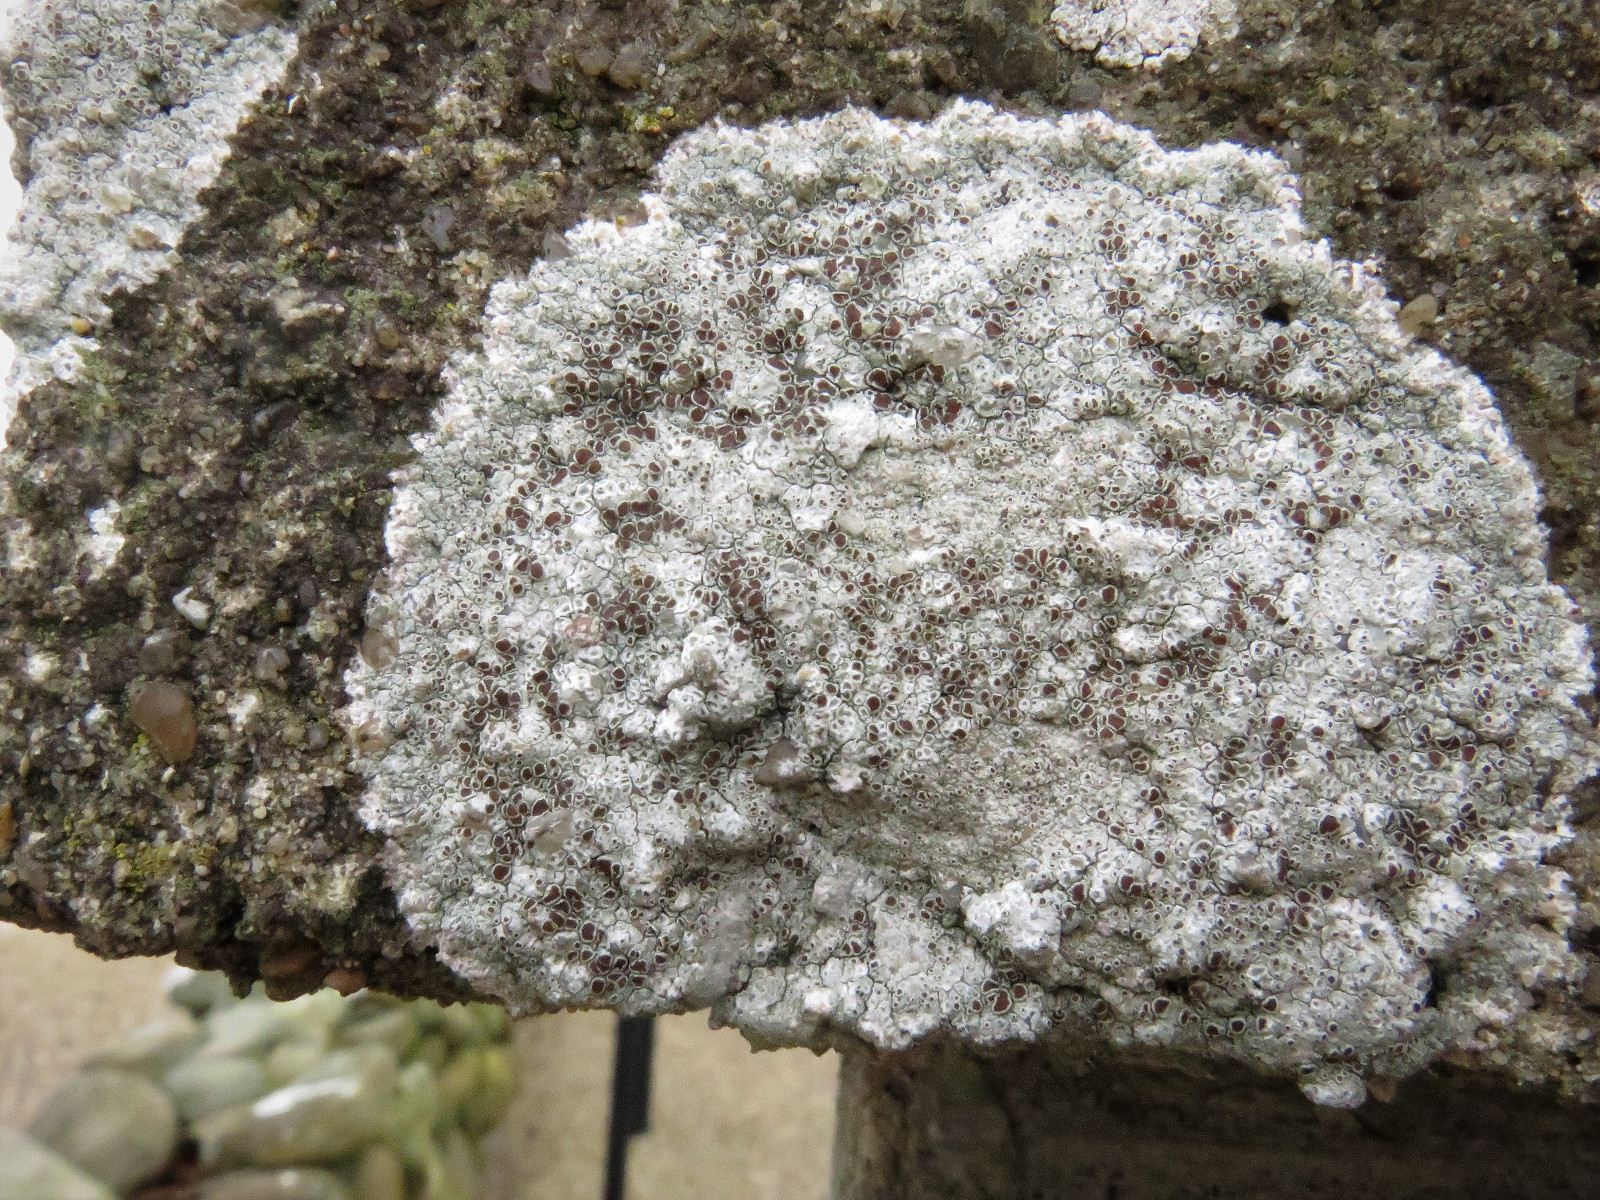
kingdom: Fungi
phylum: Ascomycota
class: Lecanoromycetes
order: Lecanorales
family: Lecanoraceae
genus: Lecanora
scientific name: Lecanora campestris
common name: mur-kantskivelav
